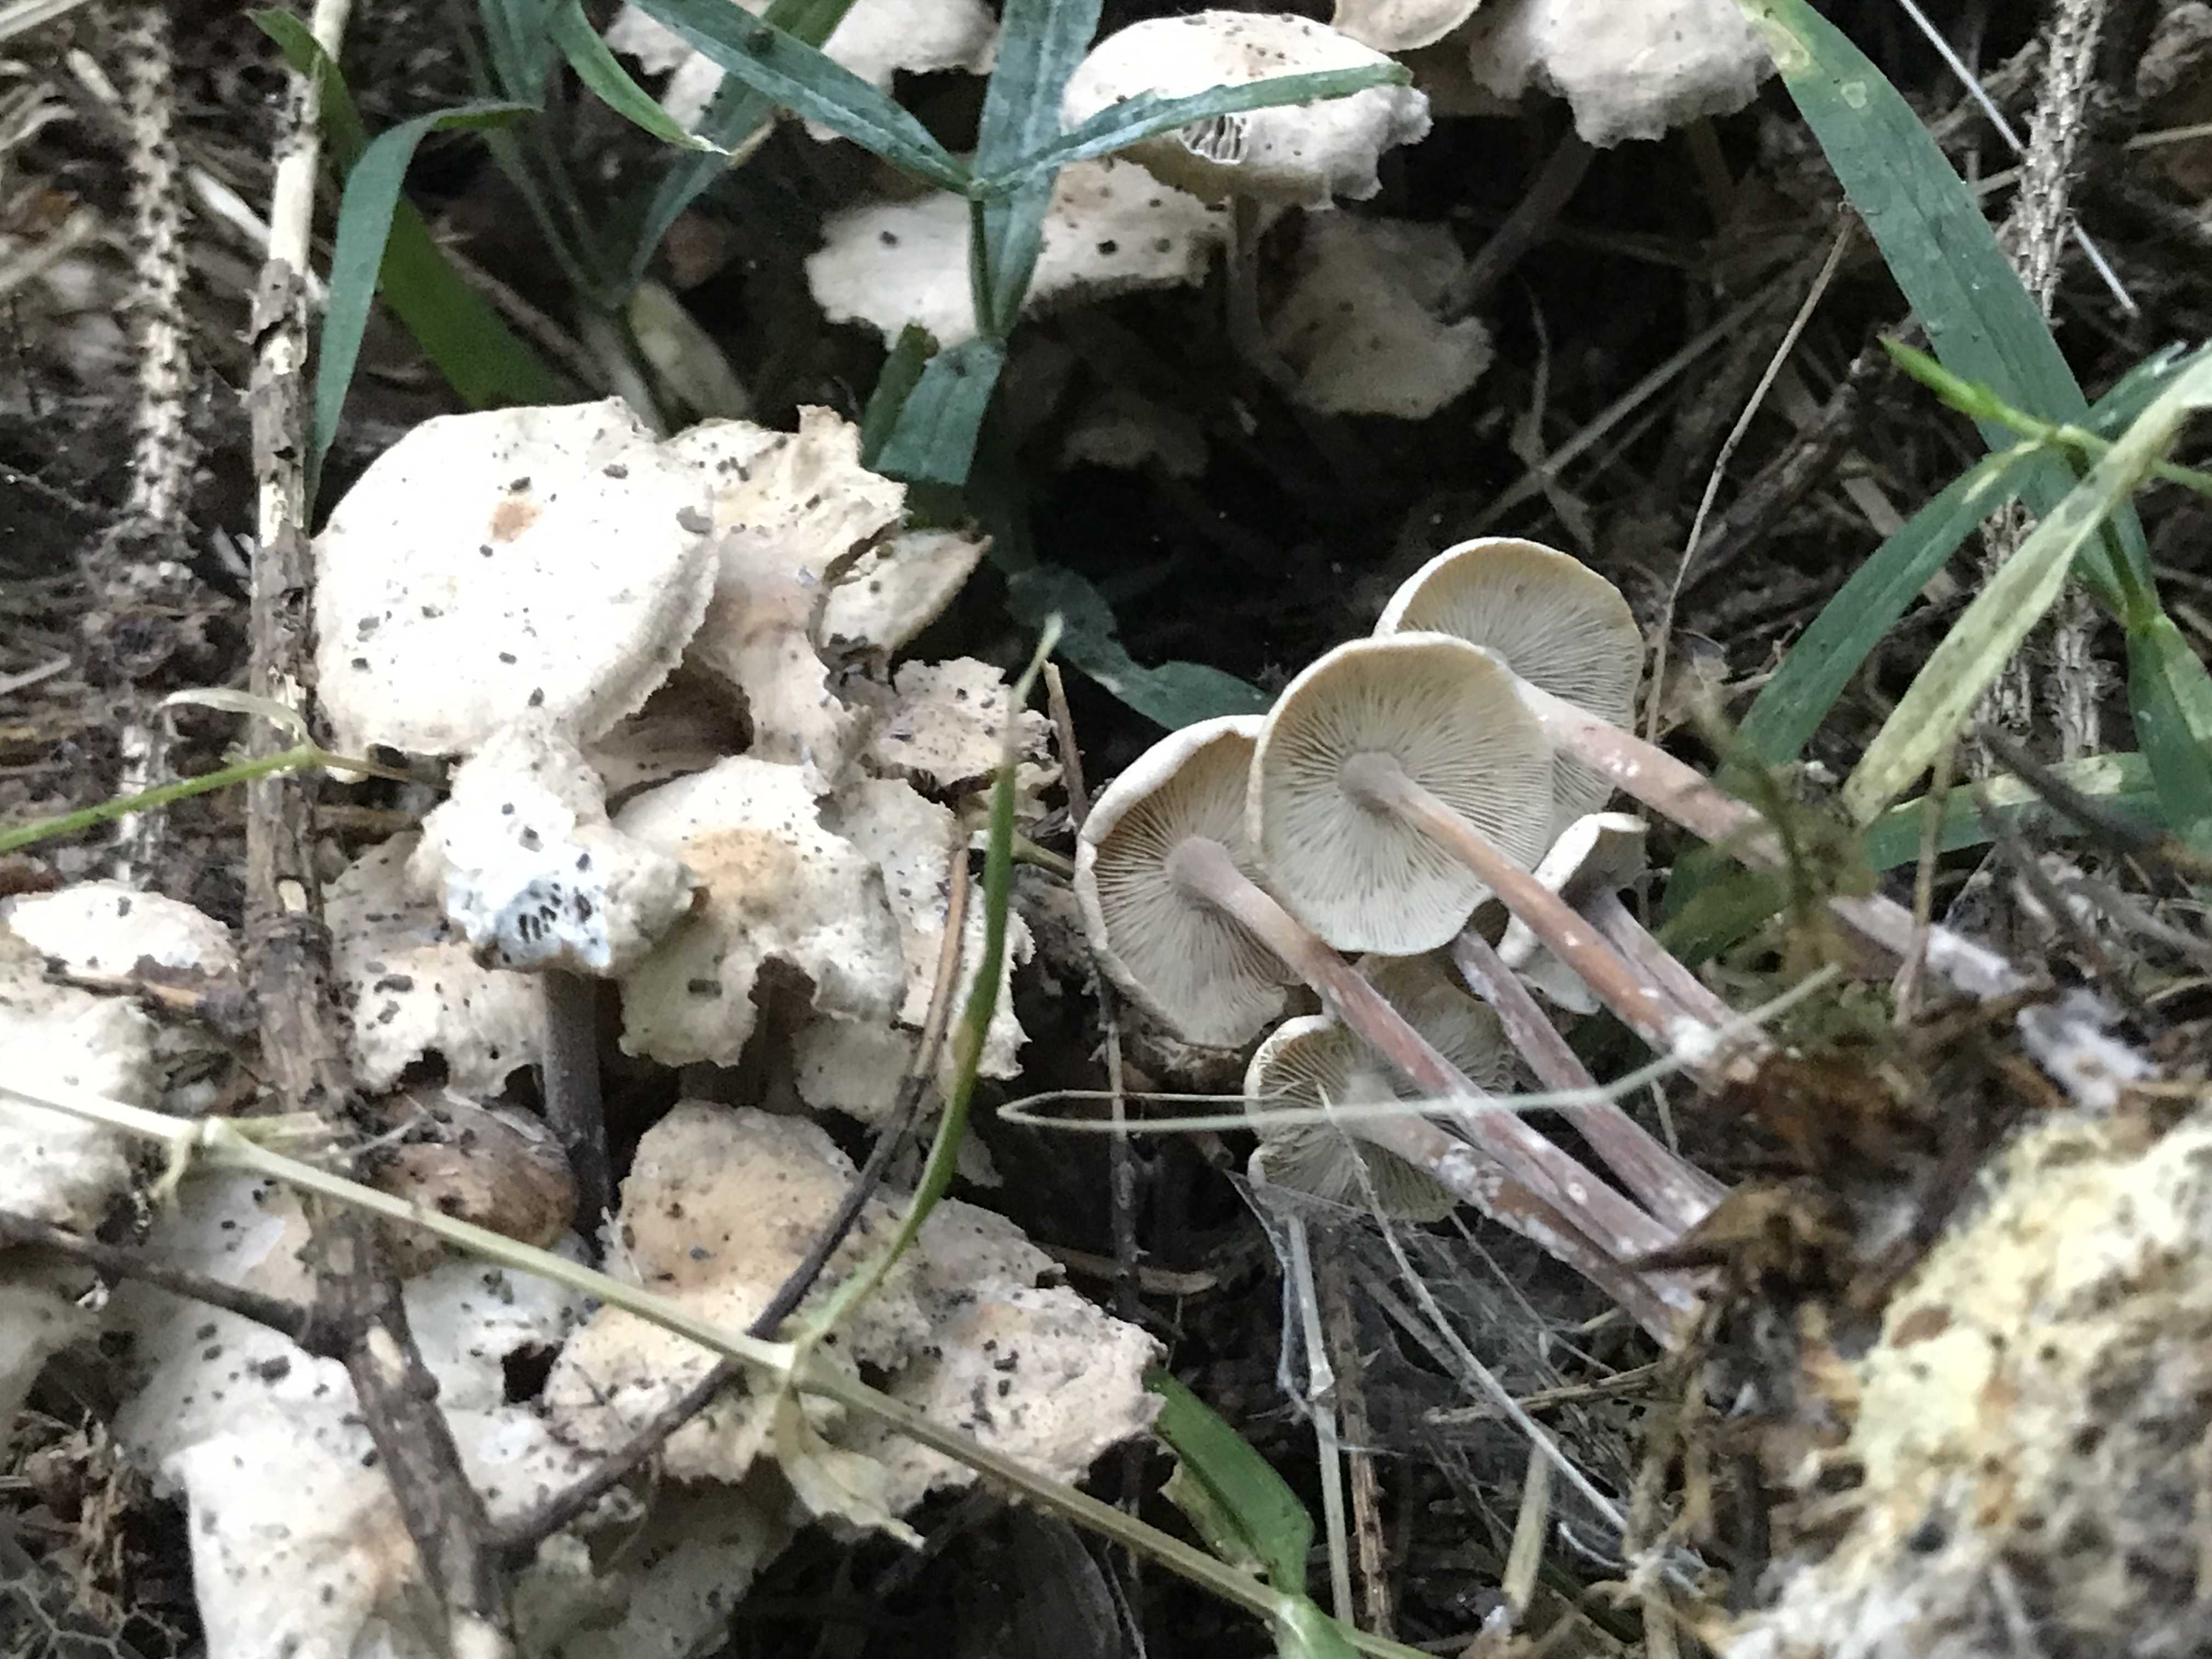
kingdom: Fungi
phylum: Basidiomycota
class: Agaricomycetes
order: Agaricales
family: Omphalotaceae
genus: Collybiopsis
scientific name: Collybiopsis confluens
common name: knippe-fladhat
